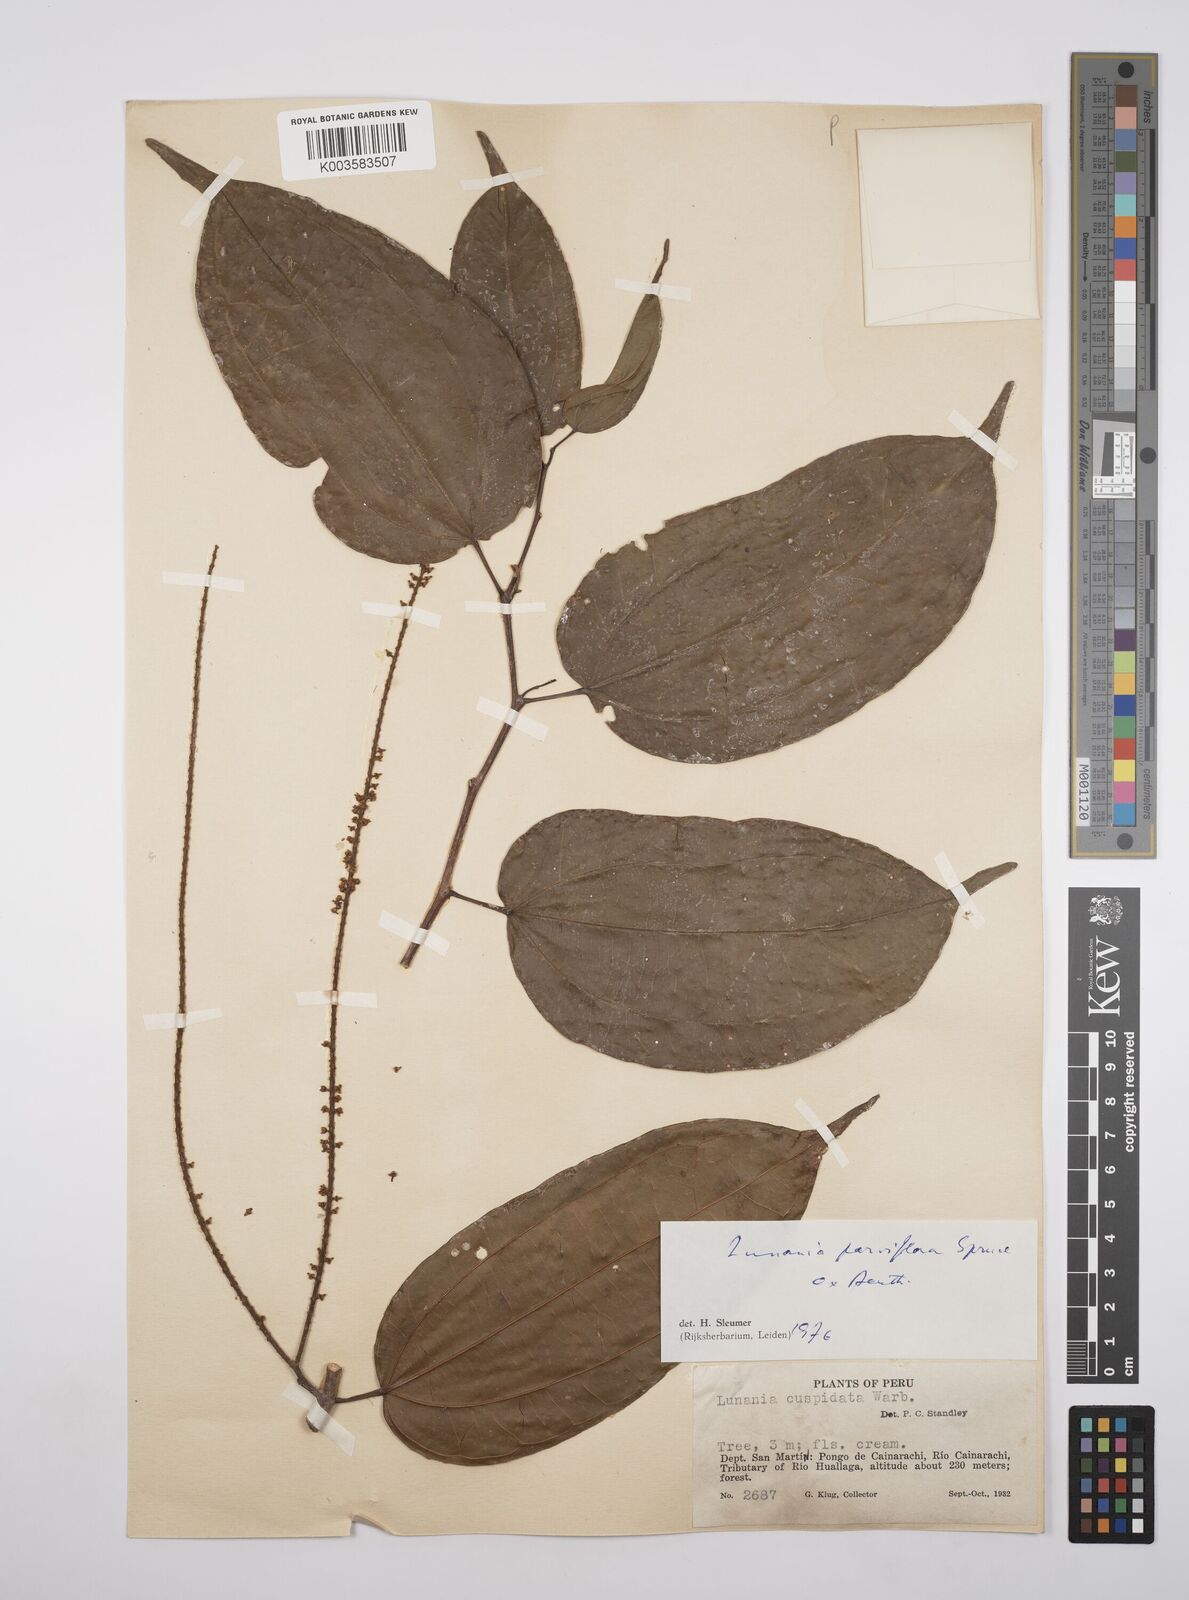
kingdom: Plantae
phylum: Tracheophyta
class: Magnoliopsida
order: Malpighiales
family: Salicaceae
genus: Lunania
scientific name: Lunania parviflora
